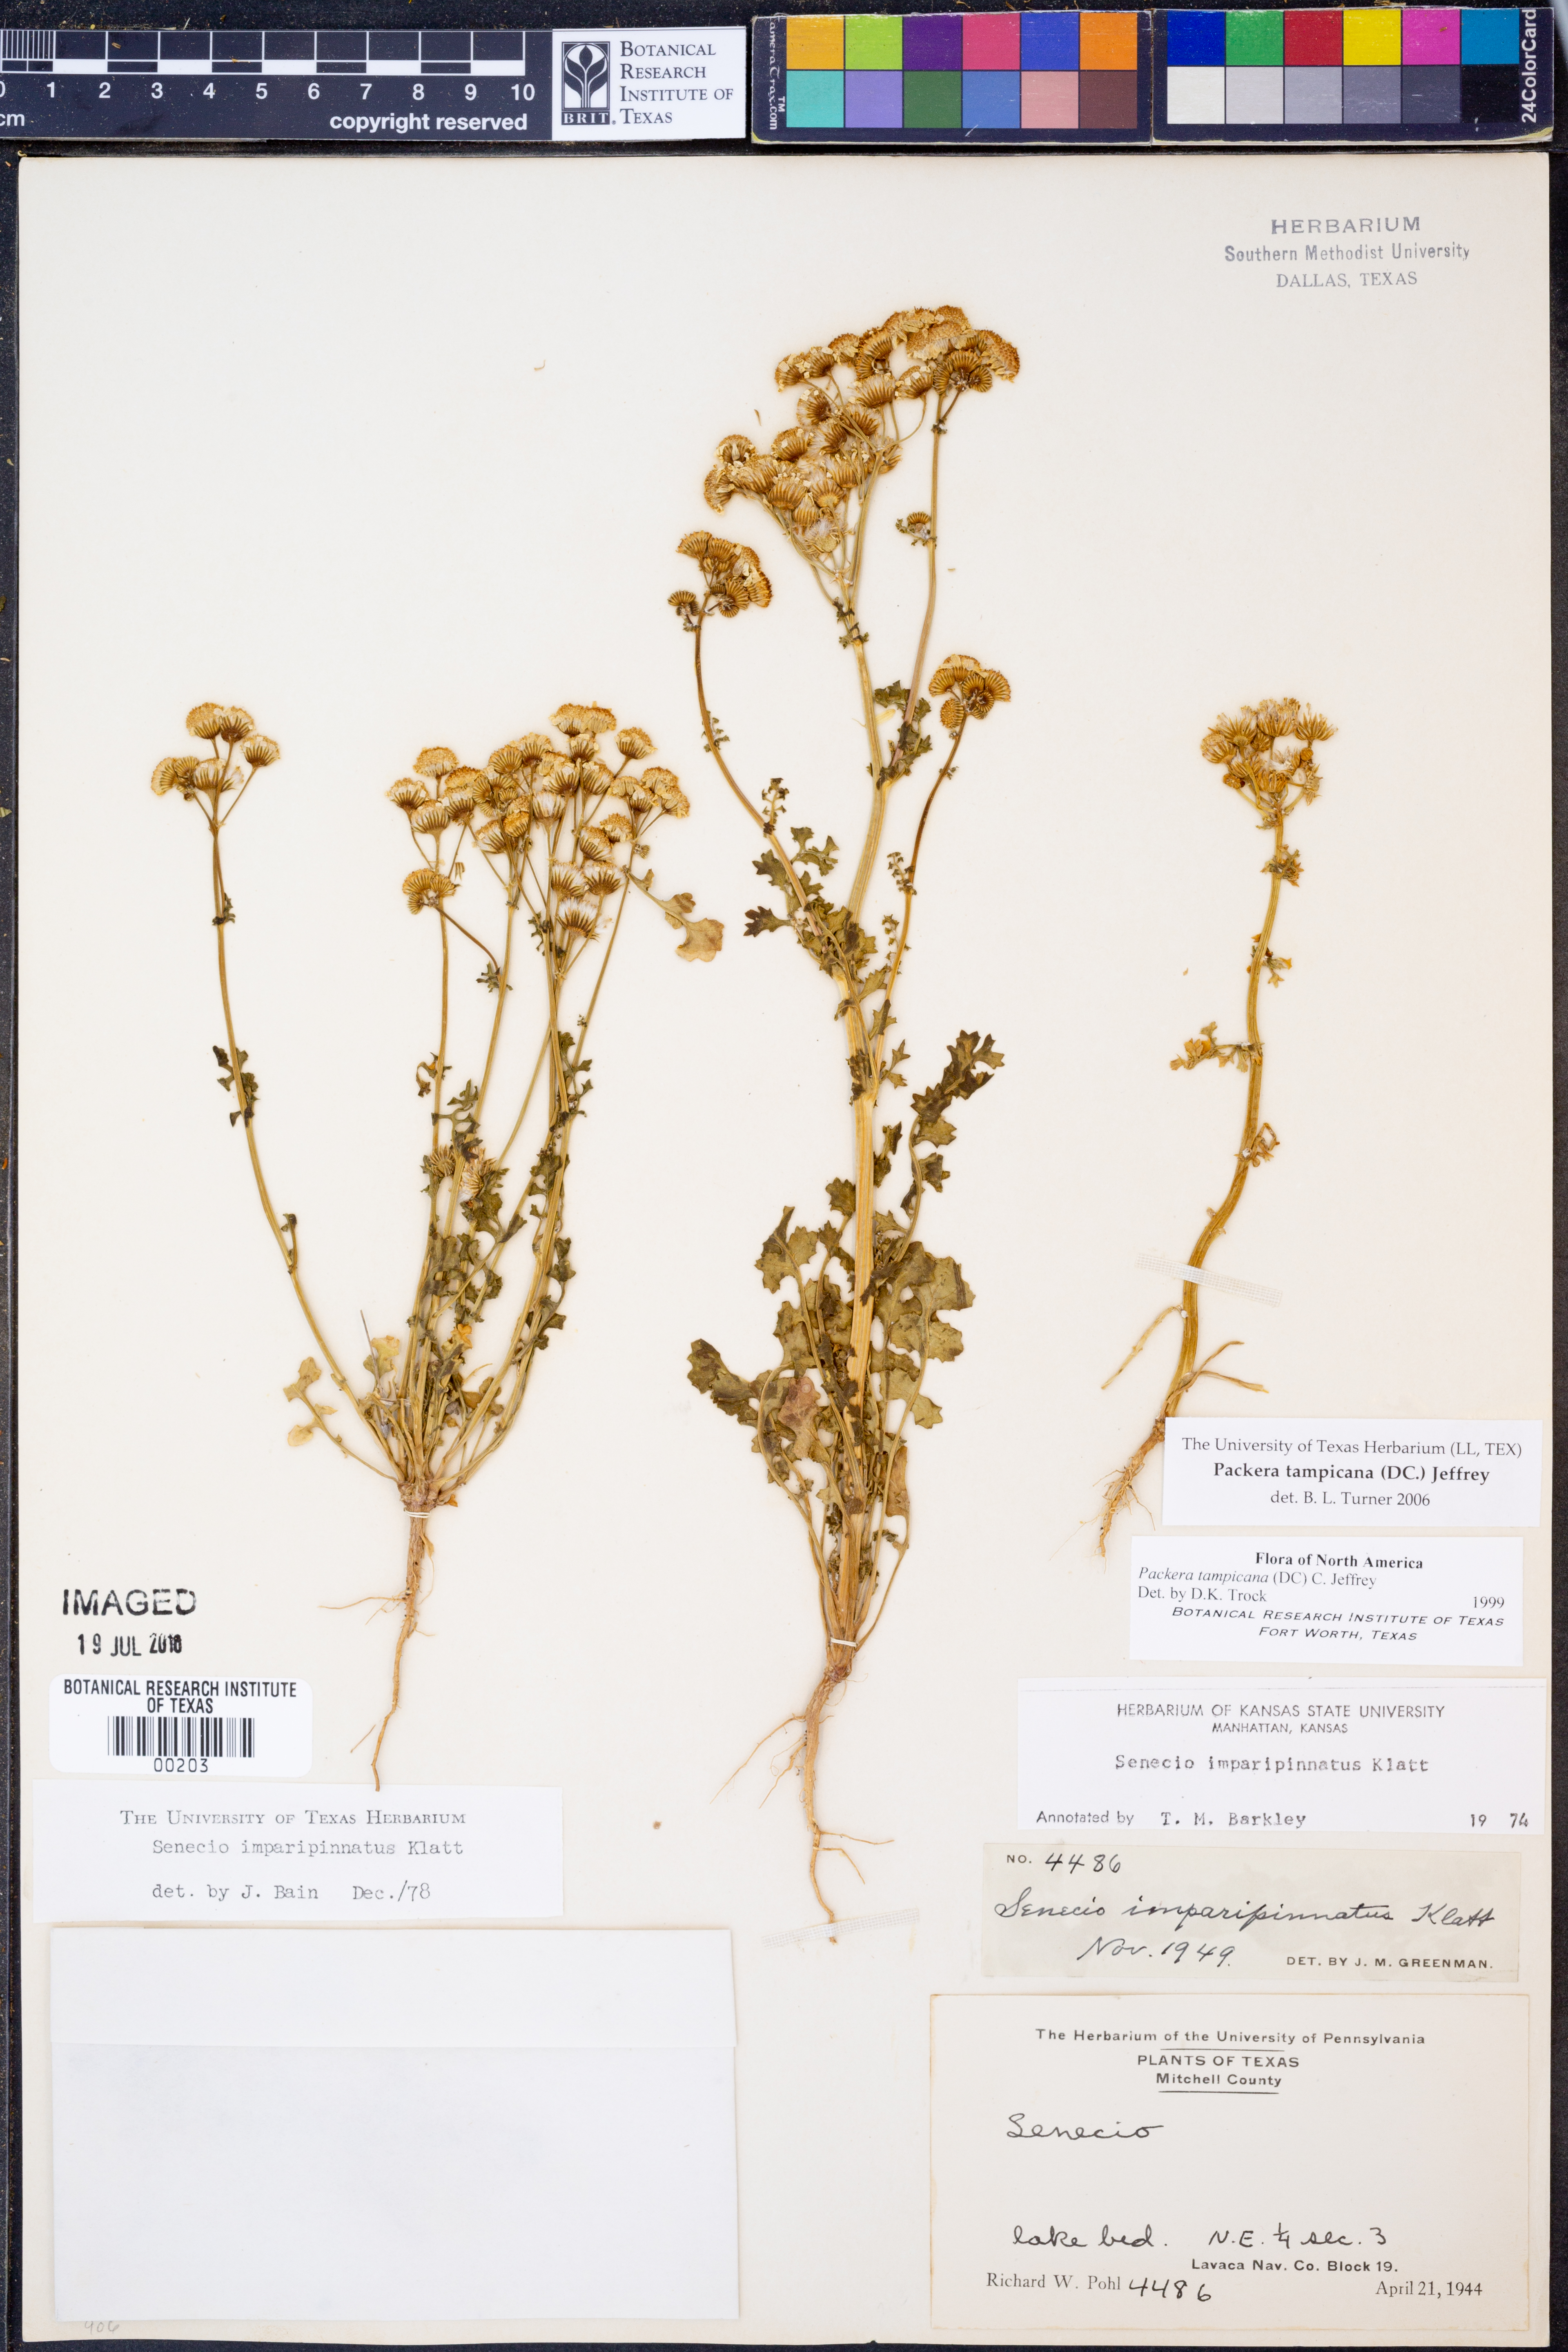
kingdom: Plantae
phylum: Tracheophyta
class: Magnoliopsida
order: Asterales
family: Asteraceae
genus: Packera
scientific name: Packera tampicana
